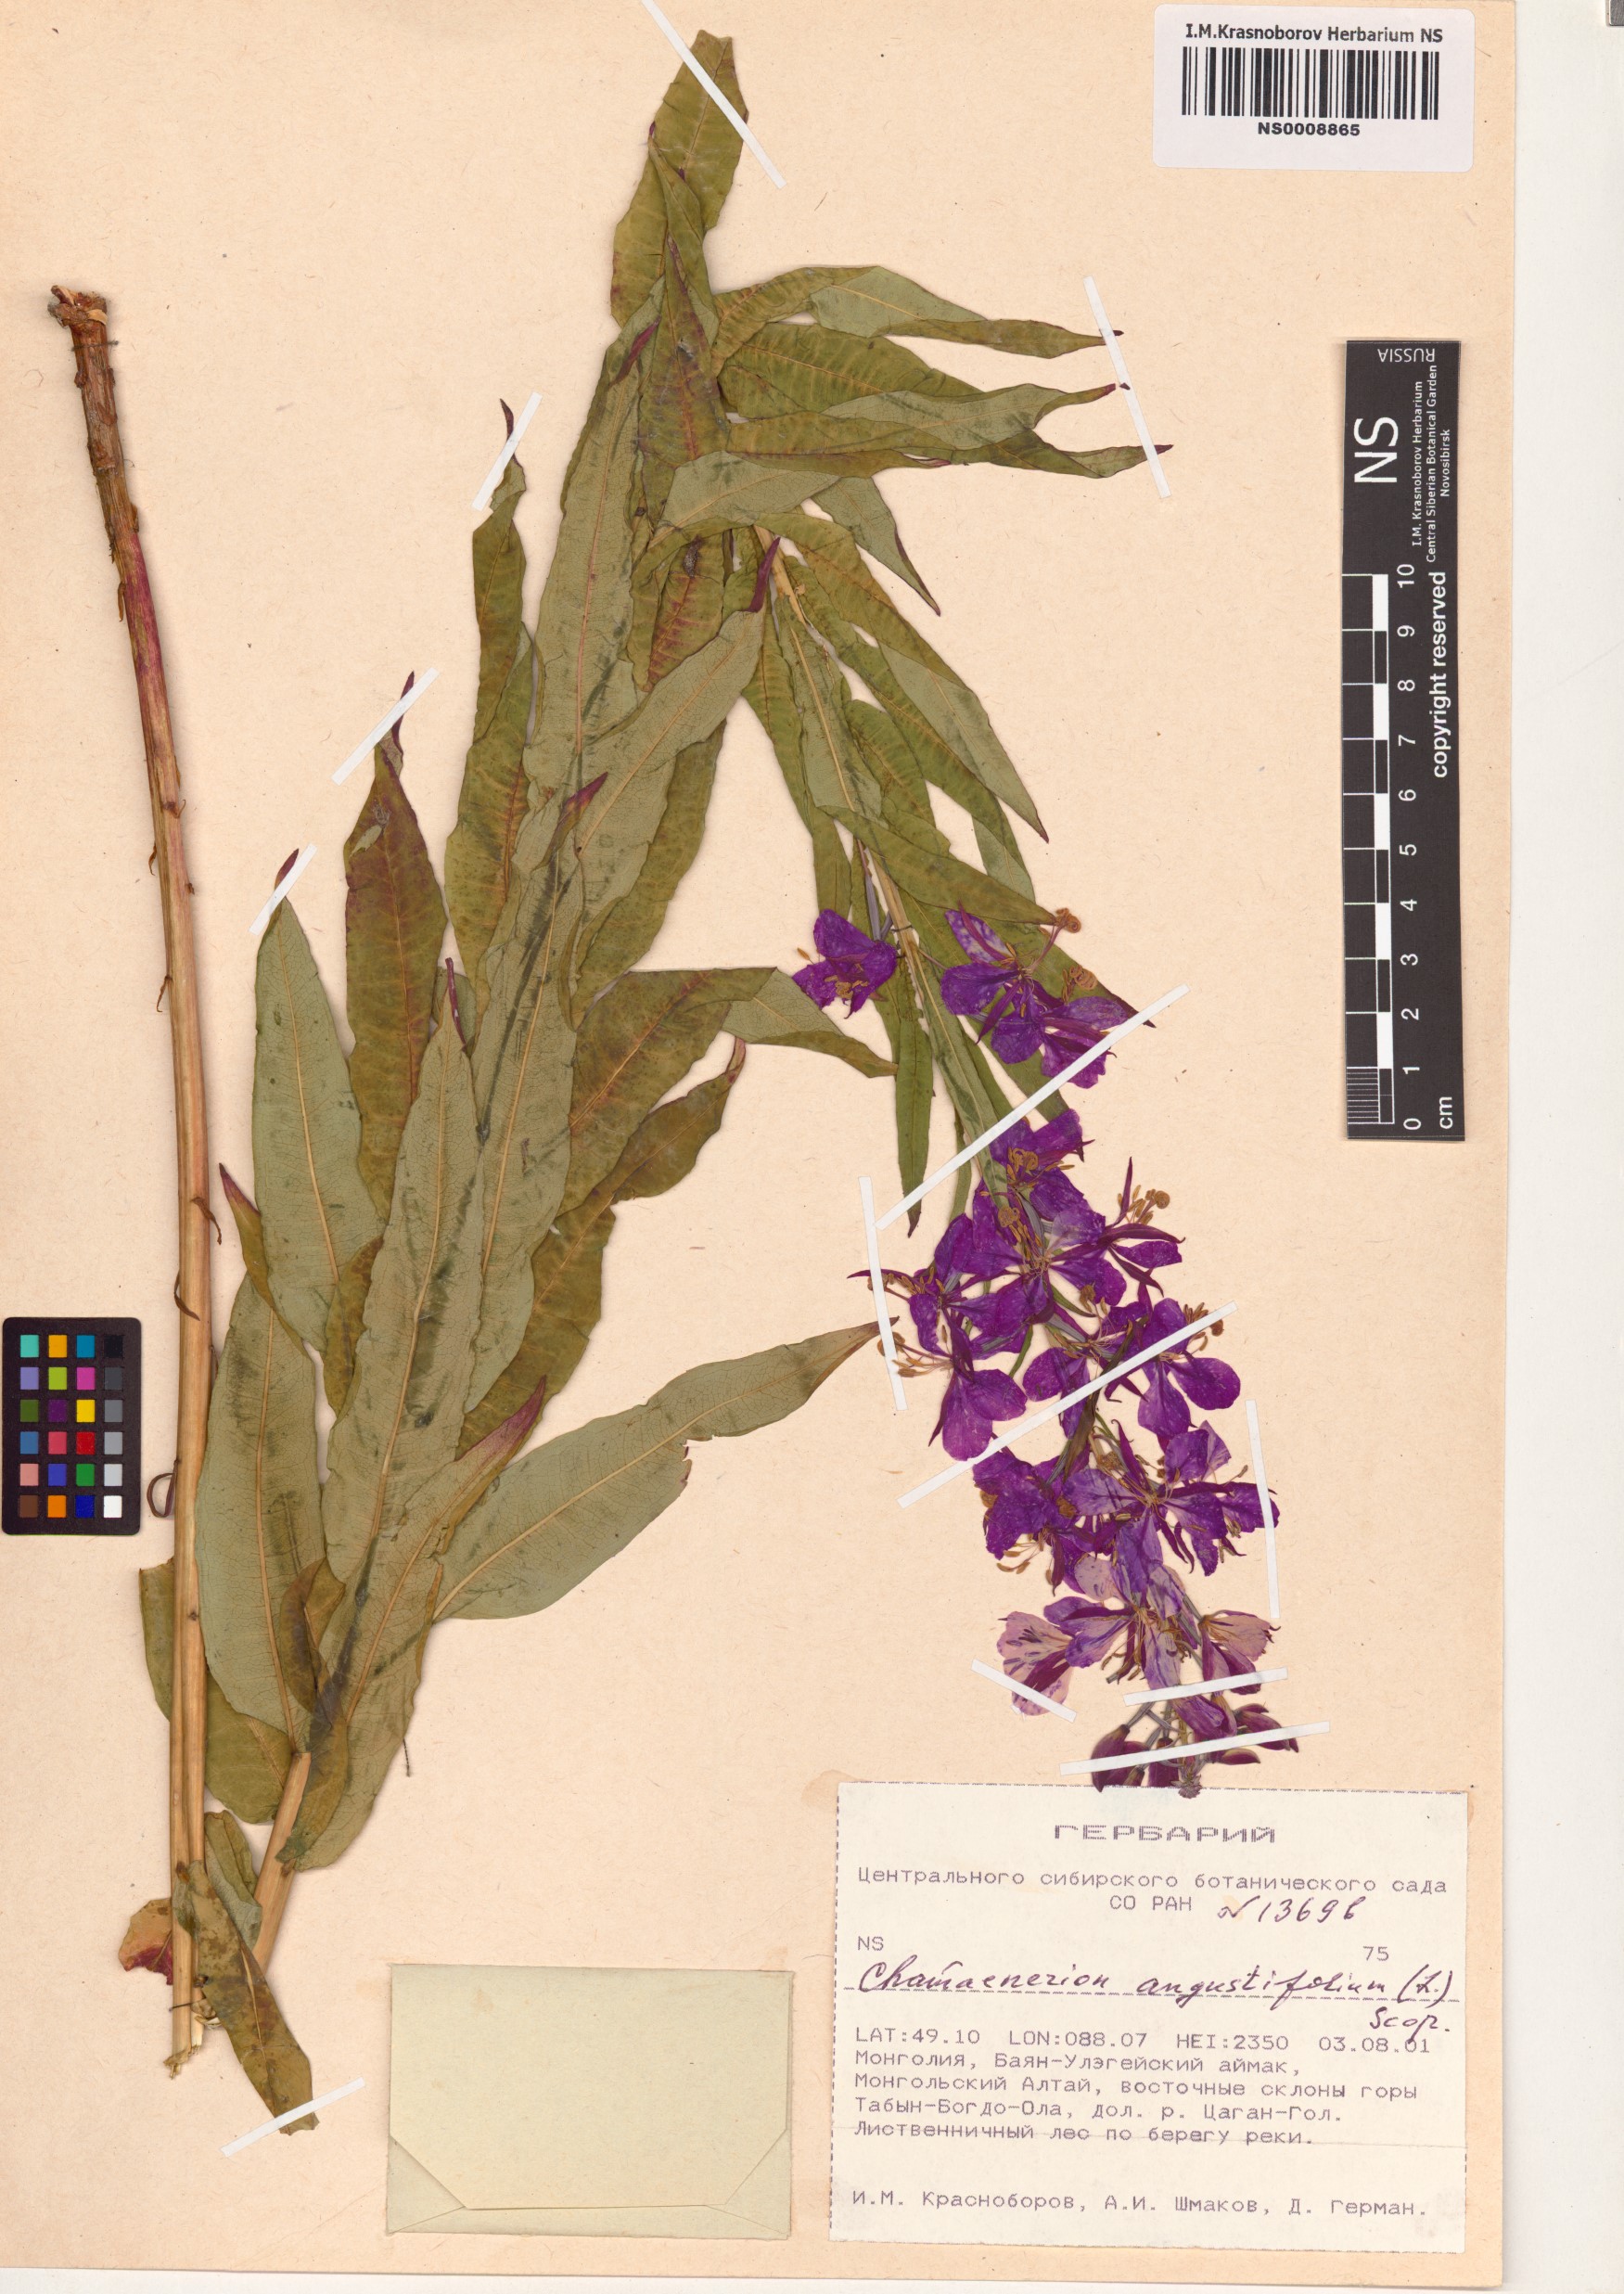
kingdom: Plantae
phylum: Tracheophyta
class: Magnoliopsida
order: Myrtales
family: Onagraceae
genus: Chamaenerion
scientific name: Chamaenerion angustifolium
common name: Fireweed
